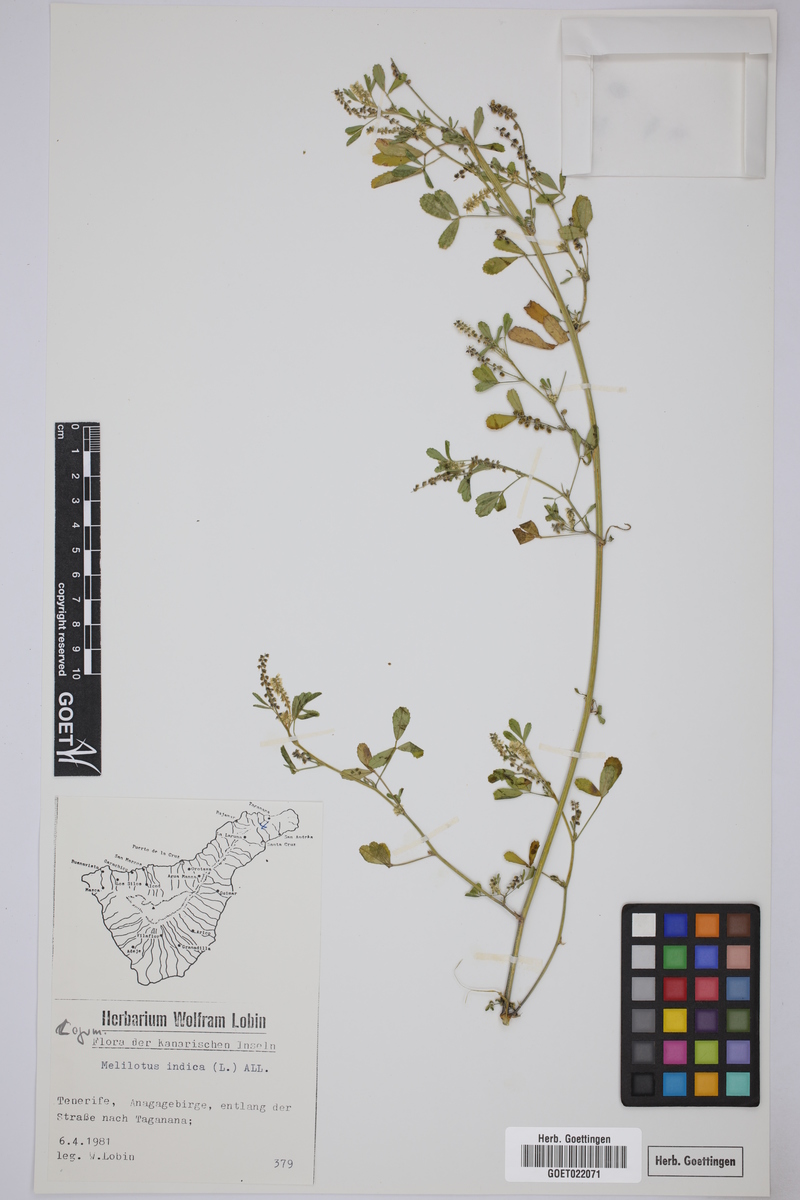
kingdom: Plantae
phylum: Tracheophyta
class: Magnoliopsida
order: Fabales
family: Fabaceae
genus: Melilotus
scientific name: Melilotus indicus
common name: Small melilot
